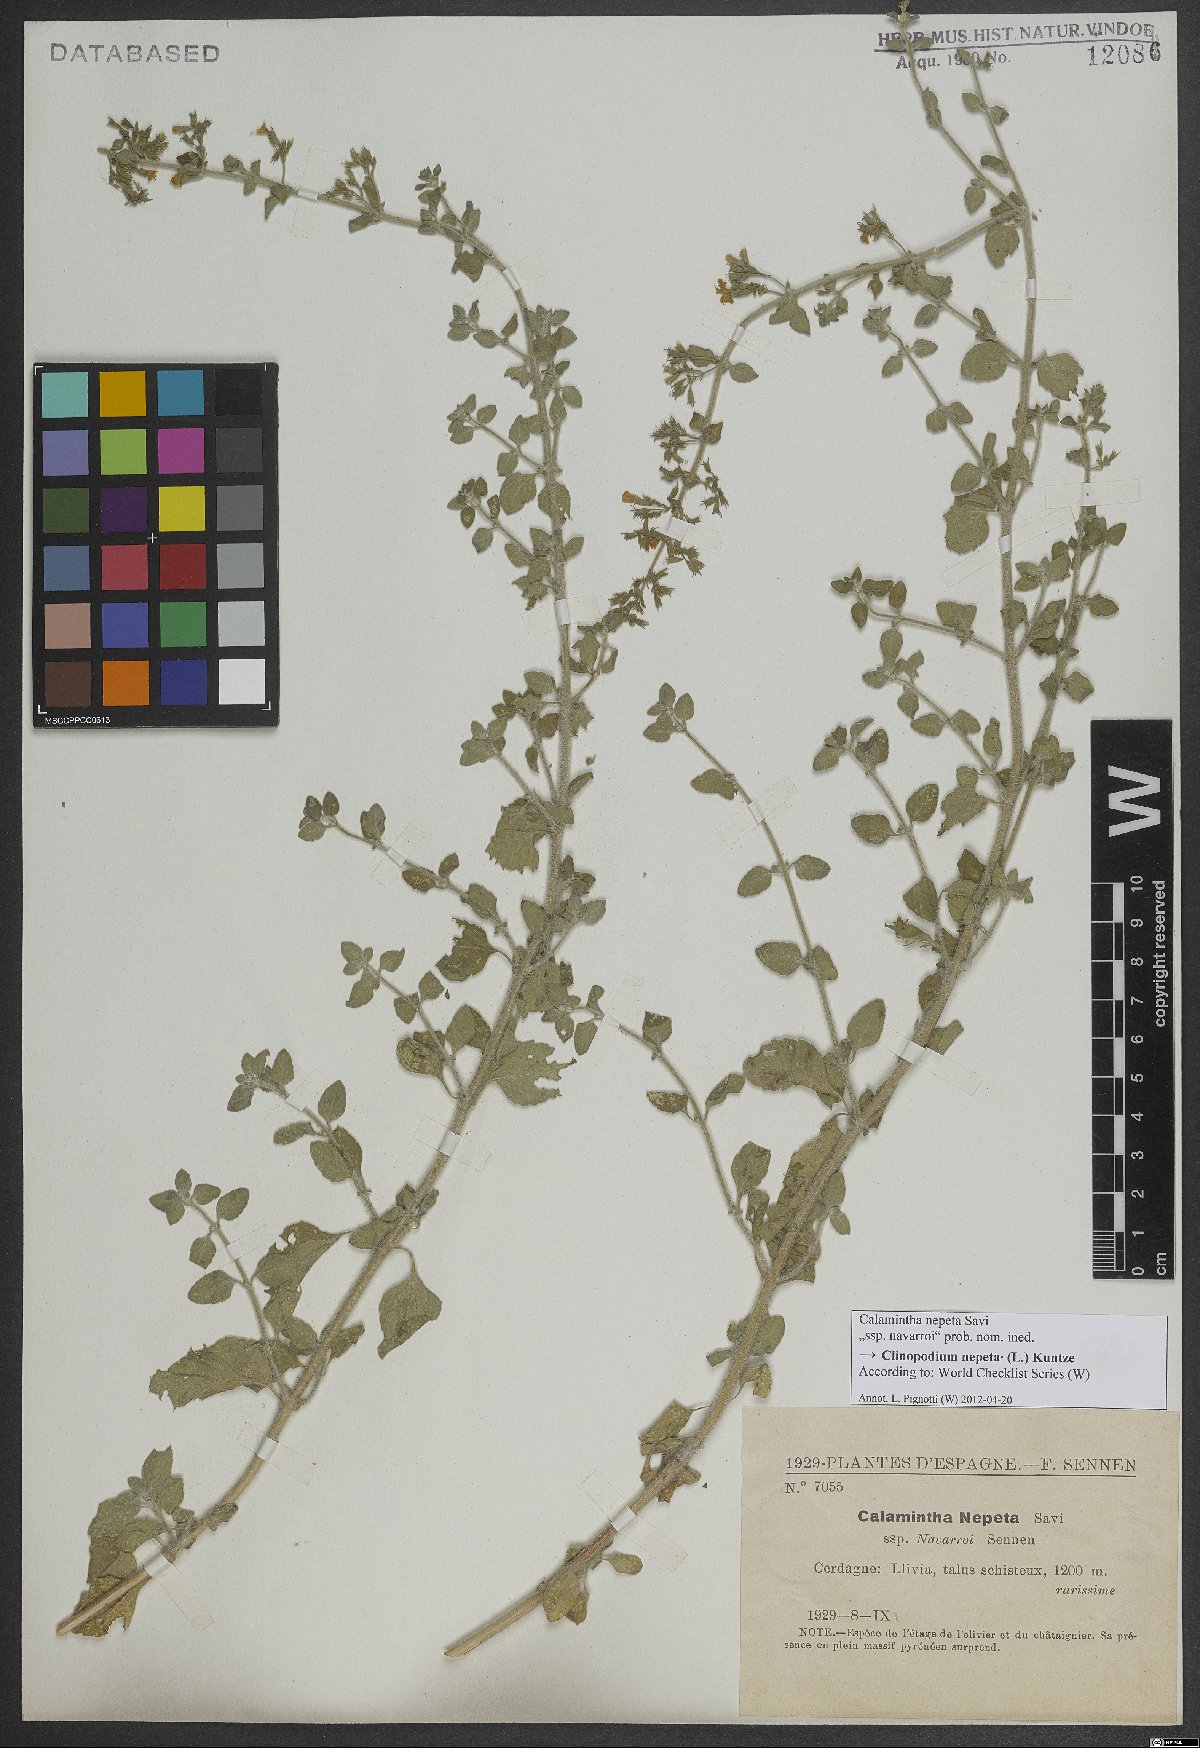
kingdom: Plantae
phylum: Tracheophyta
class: Magnoliopsida
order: Lamiales
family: Lamiaceae
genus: Clinopodium
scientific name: Clinopodium nepeta
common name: Lesser calamint
